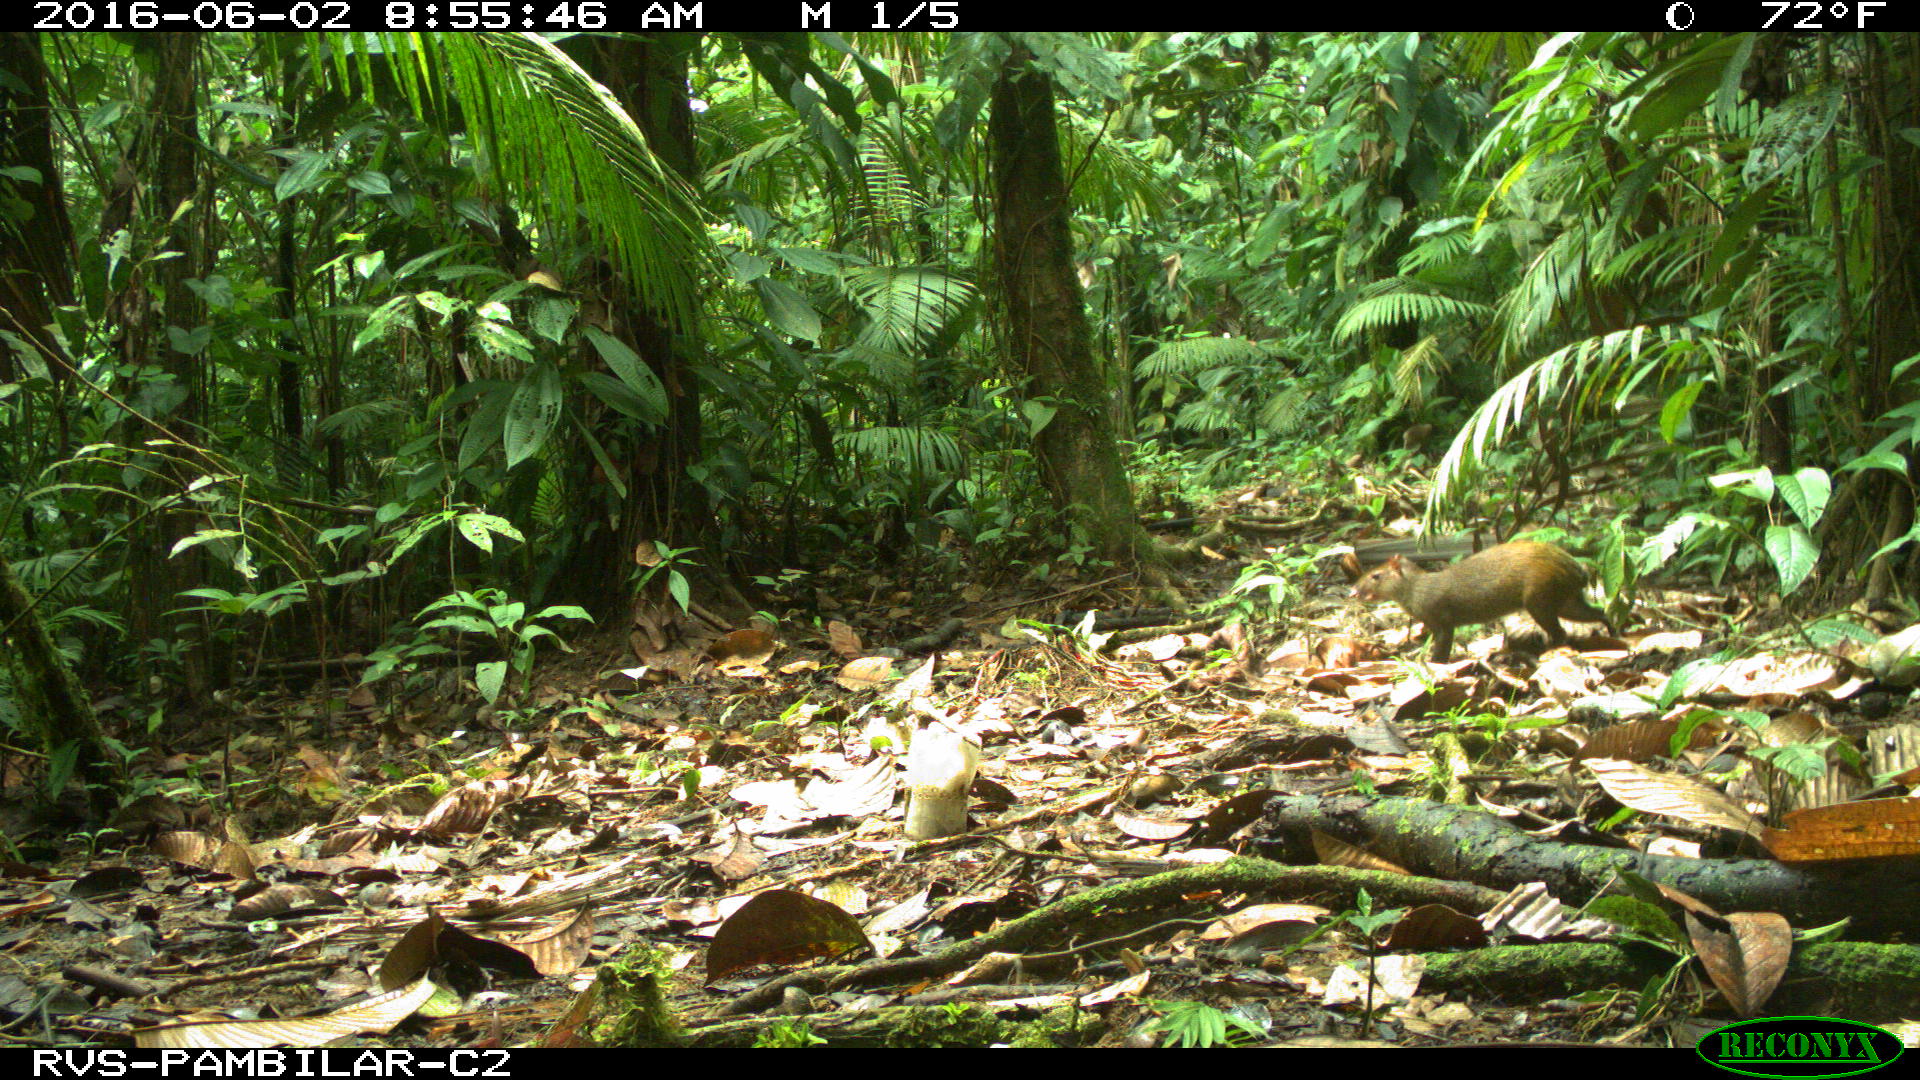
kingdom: Animalia
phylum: Chordata
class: Mammalia
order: Rodentia
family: Dasyproctidae
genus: Dasyprocta
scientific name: Dasyprocta punctata
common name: Central american agouti
